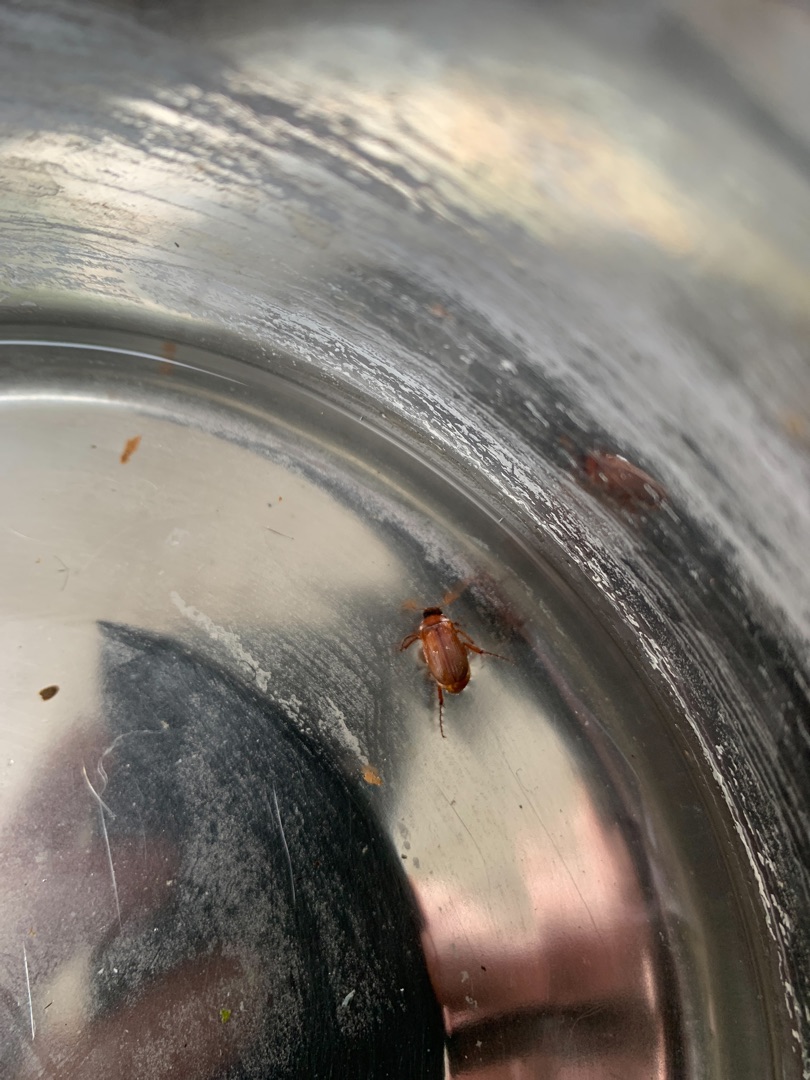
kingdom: Animalia
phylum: Arthropoda
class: Insecta
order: Coleoptera
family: Scarabaeidae
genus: Serica
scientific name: Serica brunnea
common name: Natoldenborre
